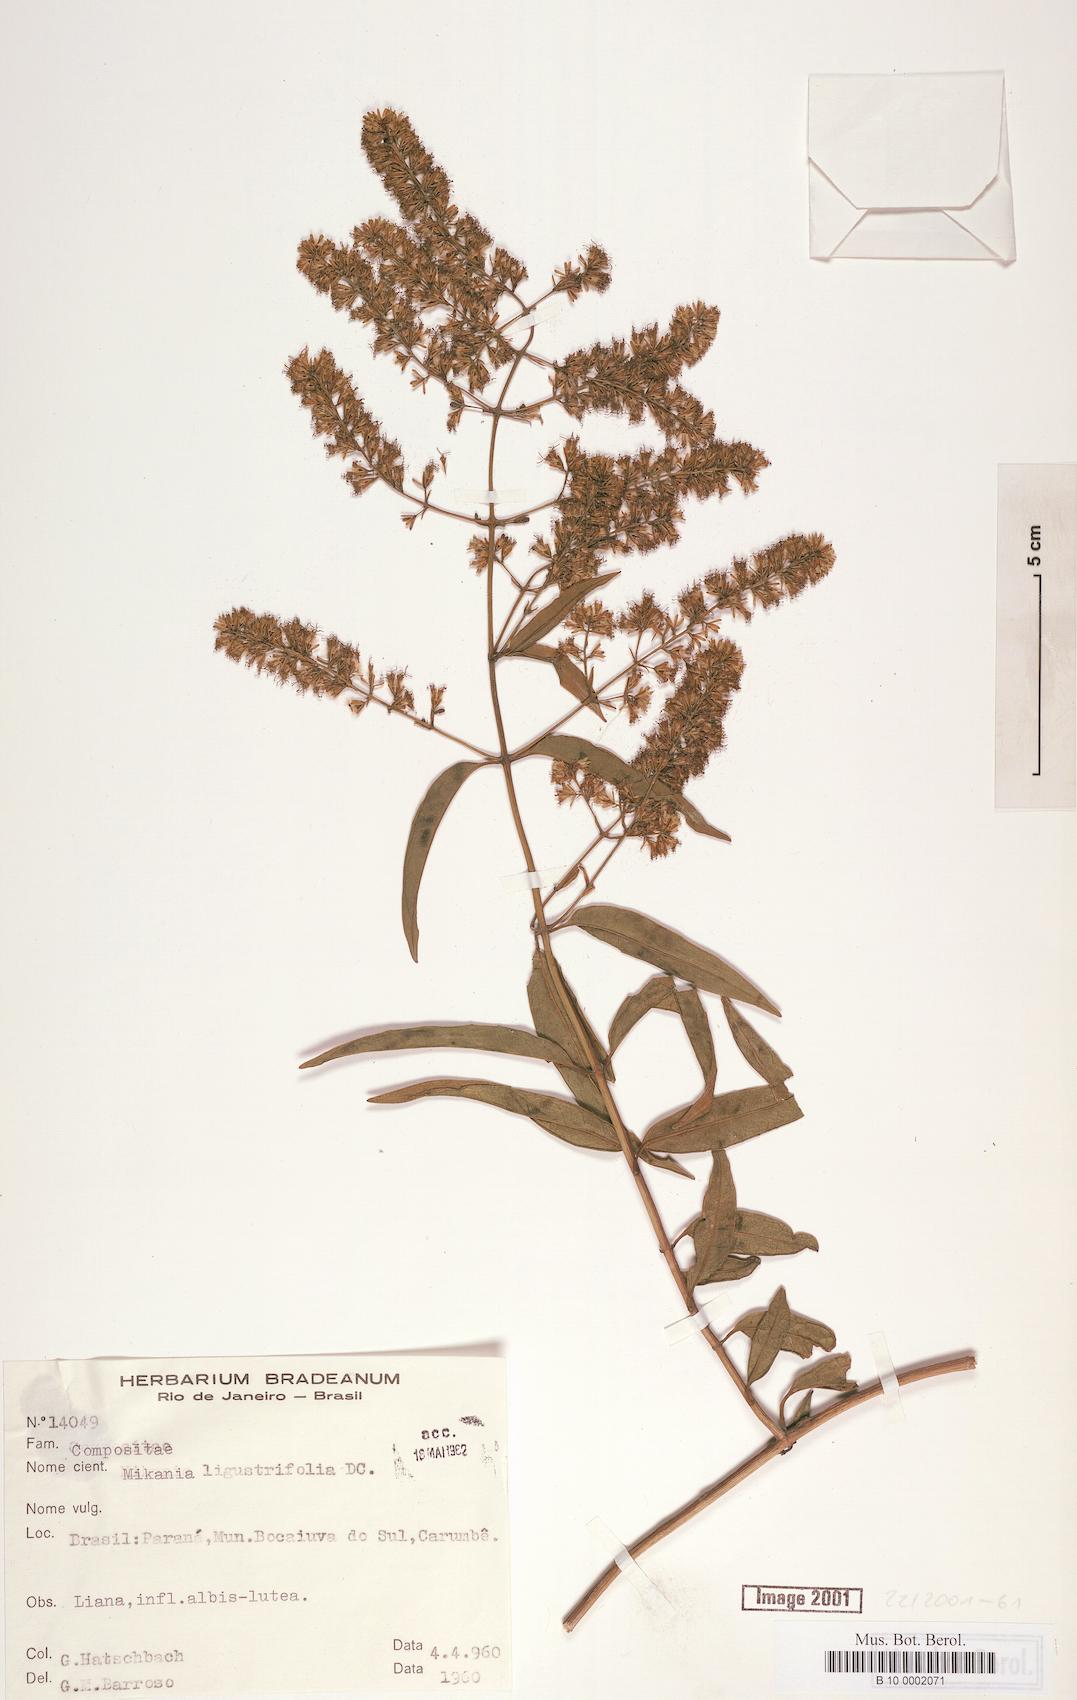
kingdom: Plantae
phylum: Tracheophyta
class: Magnoliopsida
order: Asterales
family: Asteraceae
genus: Mikania
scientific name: Mikania ligustrifolia
